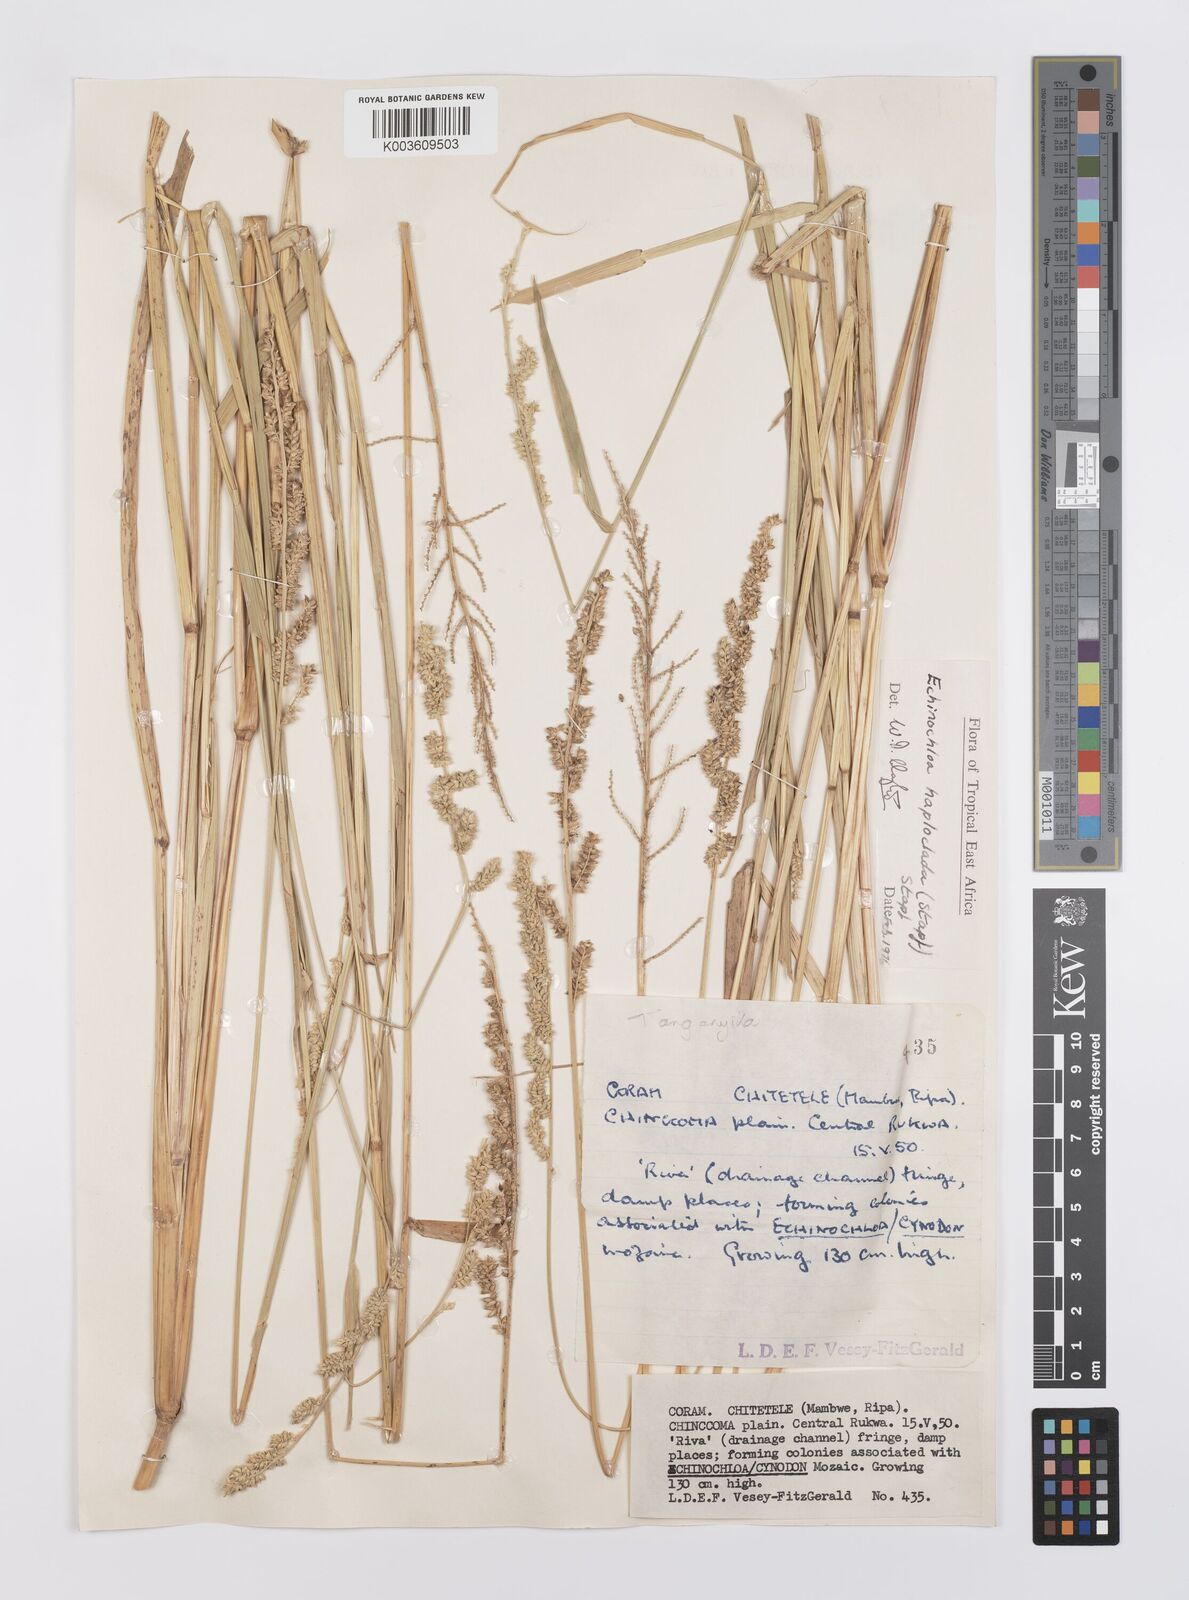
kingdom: Plantae
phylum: Tracheophyta
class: Liliopsida
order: Poales
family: Poaceae
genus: Echinochloa
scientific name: Echinochloa haploclada
